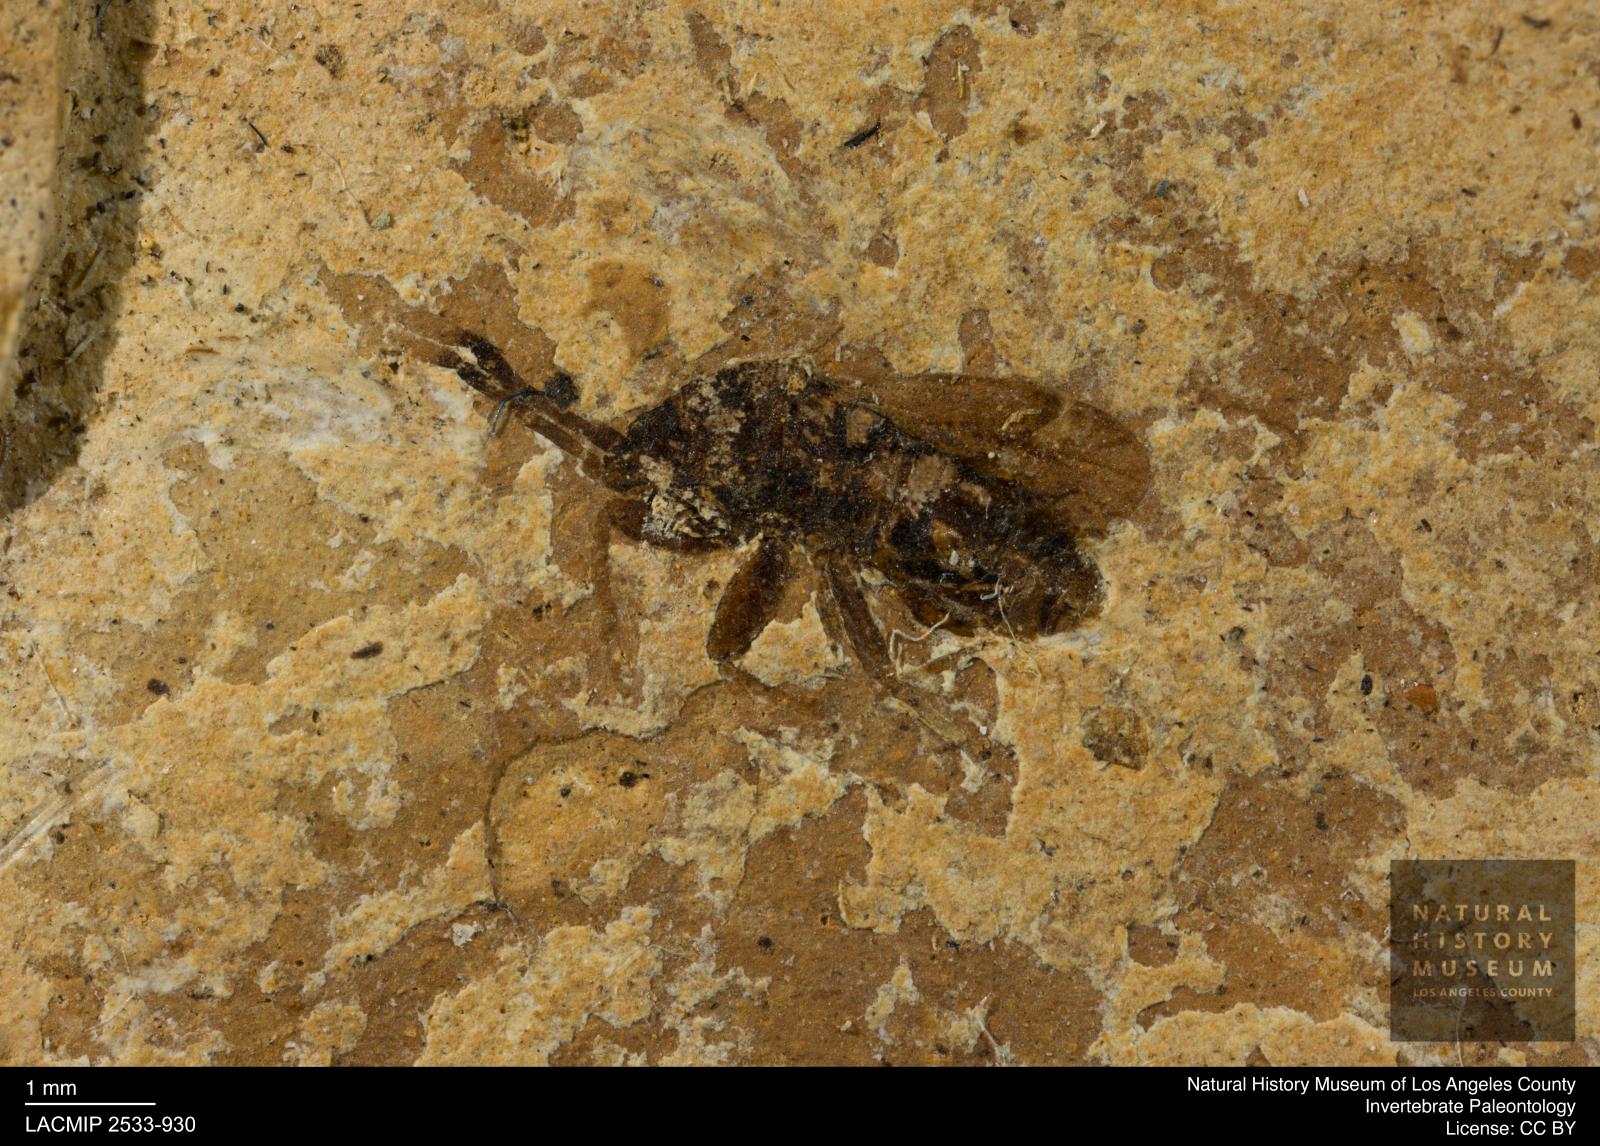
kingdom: Animalia
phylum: Arthropoda
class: Insecta
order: Hemiptera
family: Rhyparochromidae
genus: Scolopostethus
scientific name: Scolopostethus statzi
